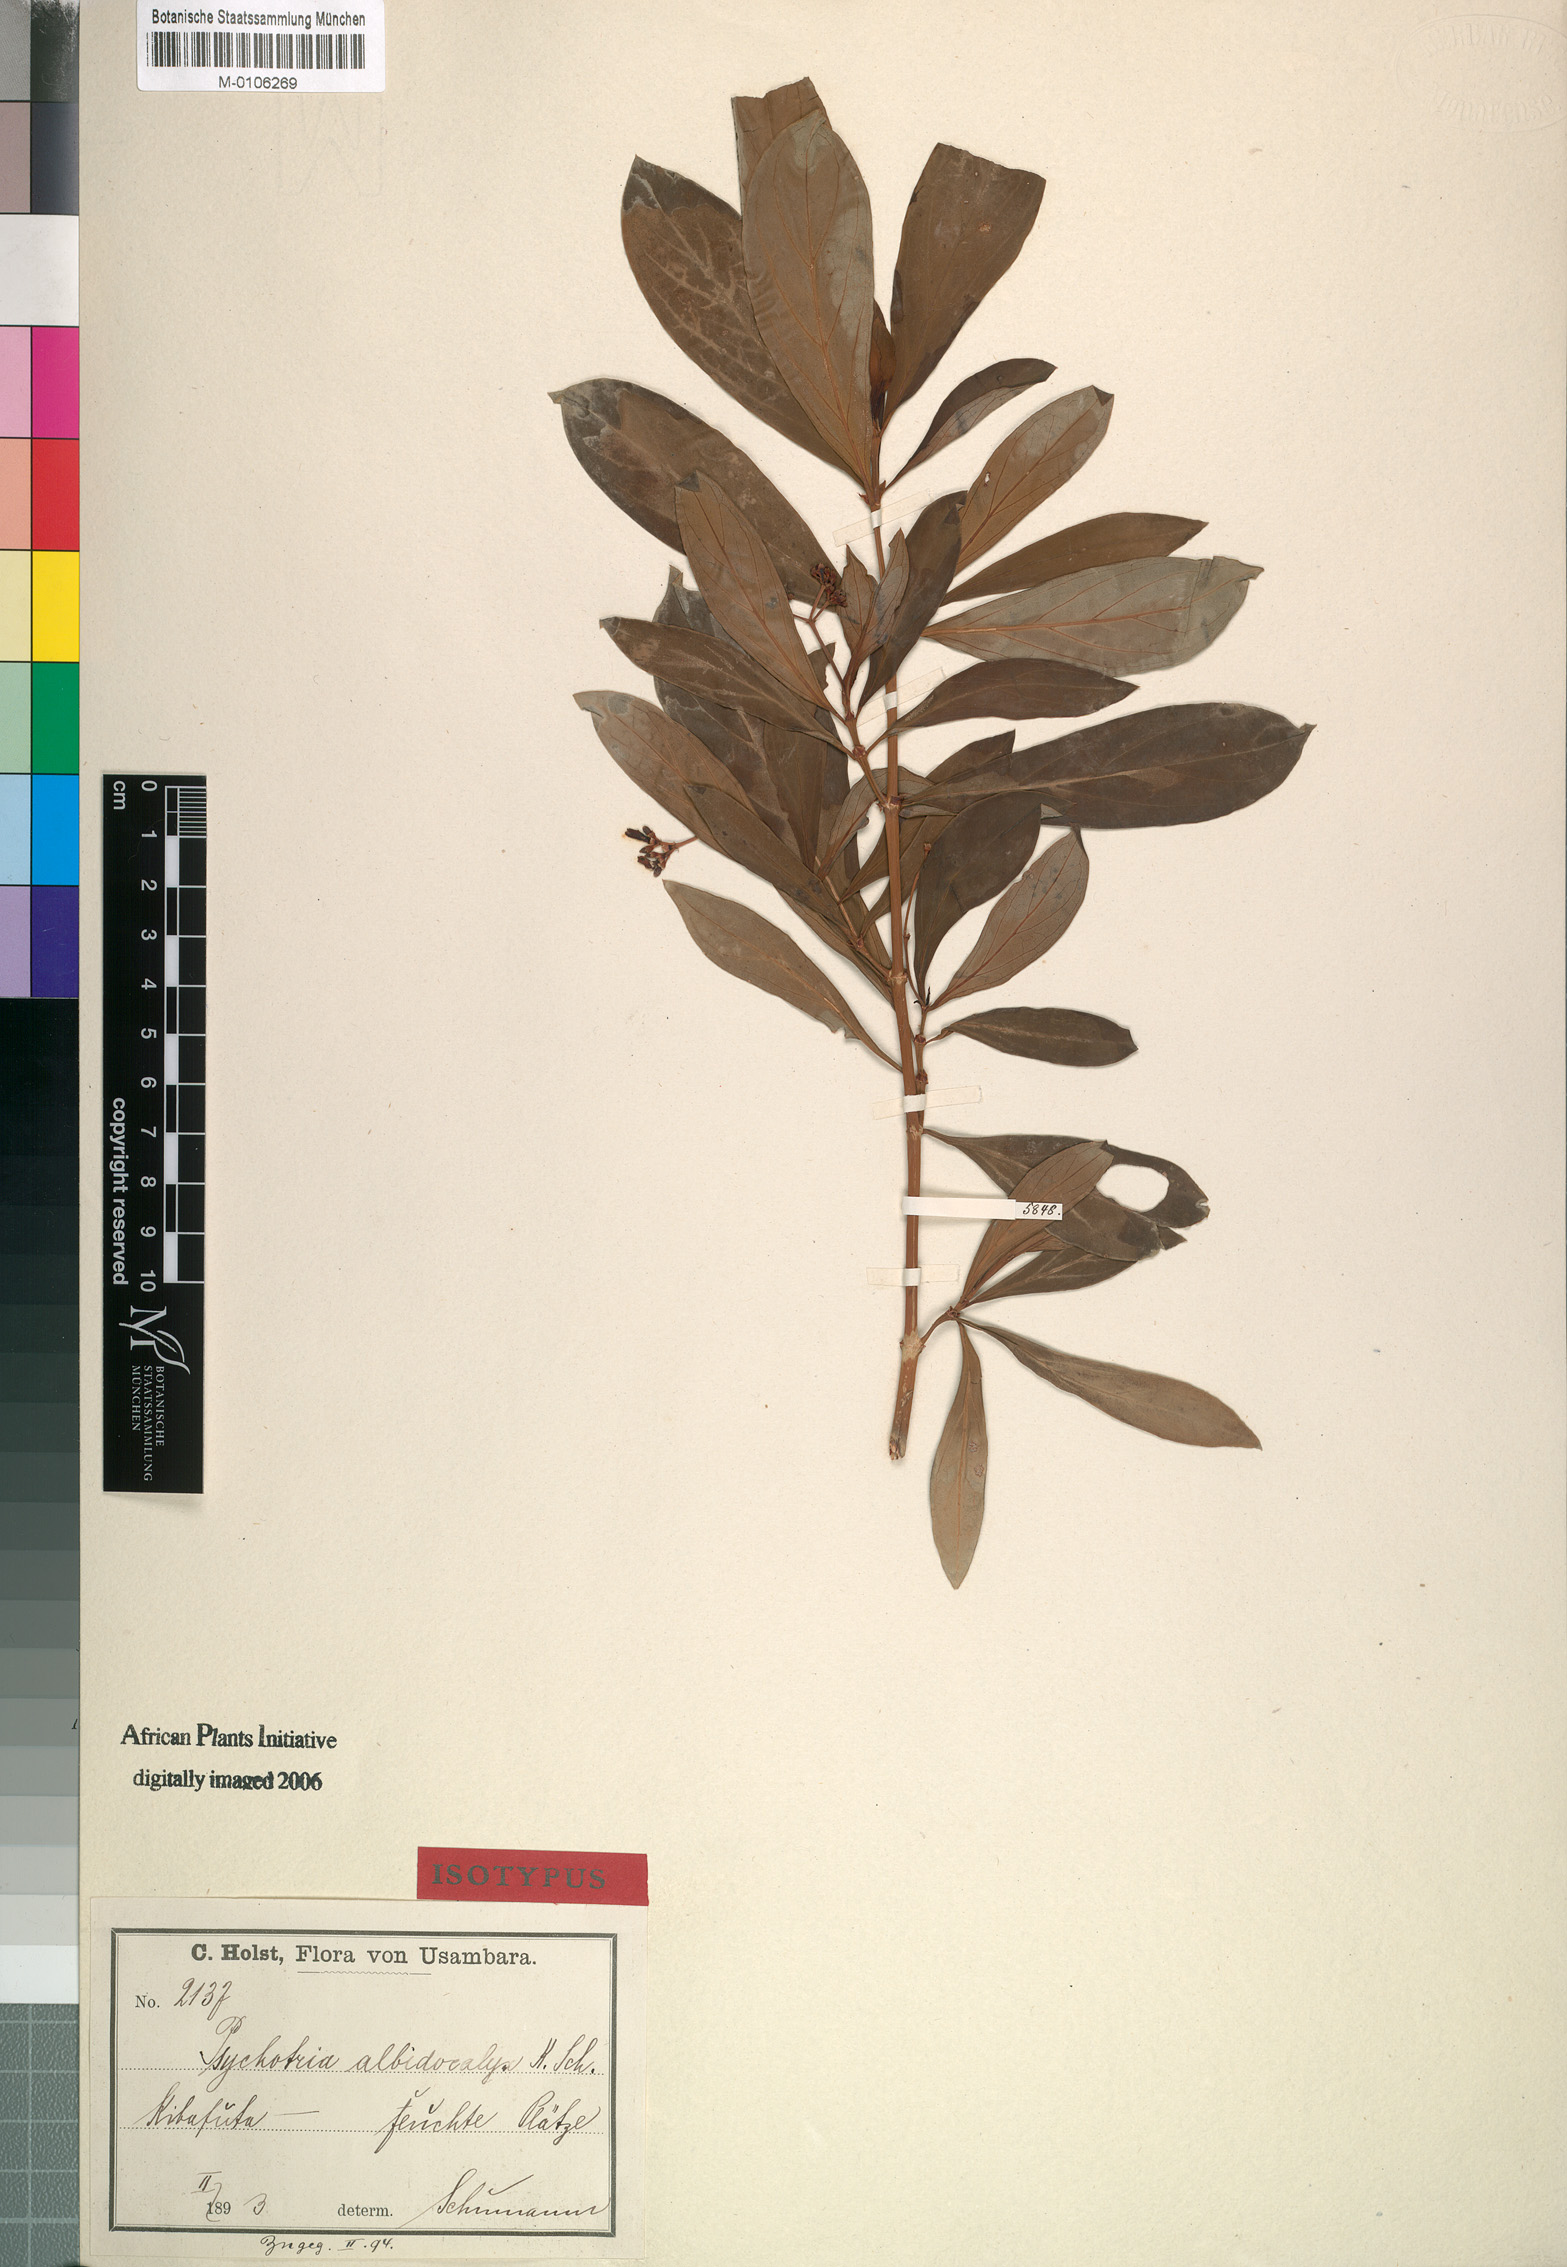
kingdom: Plantae
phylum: Tracheophyta
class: Magnoliopsida
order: Gentianales
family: Rubiaceae
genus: Psychotria
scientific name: Psychotria amboniana
